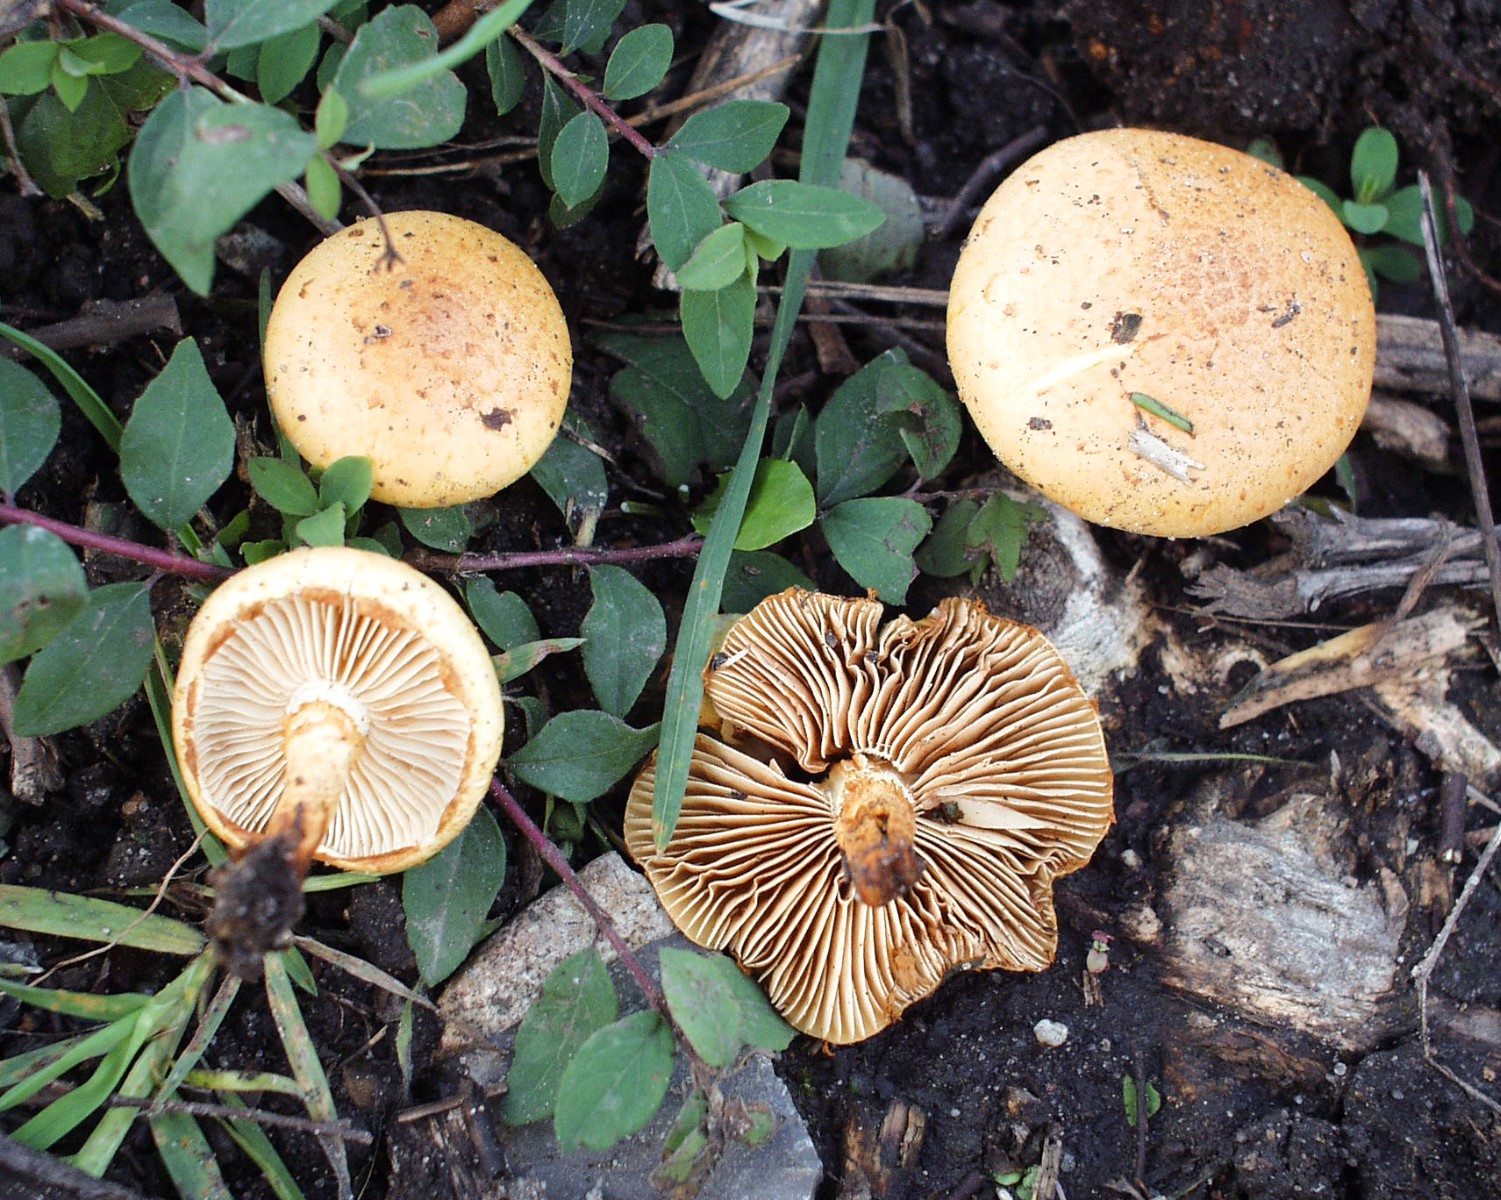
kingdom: Fungi
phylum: Basidiomycota
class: Agaricomycetes
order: Agaricales
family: Strophariaceae
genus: Pholiota
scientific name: Pholiota lucifera
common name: brandgul skælhat
